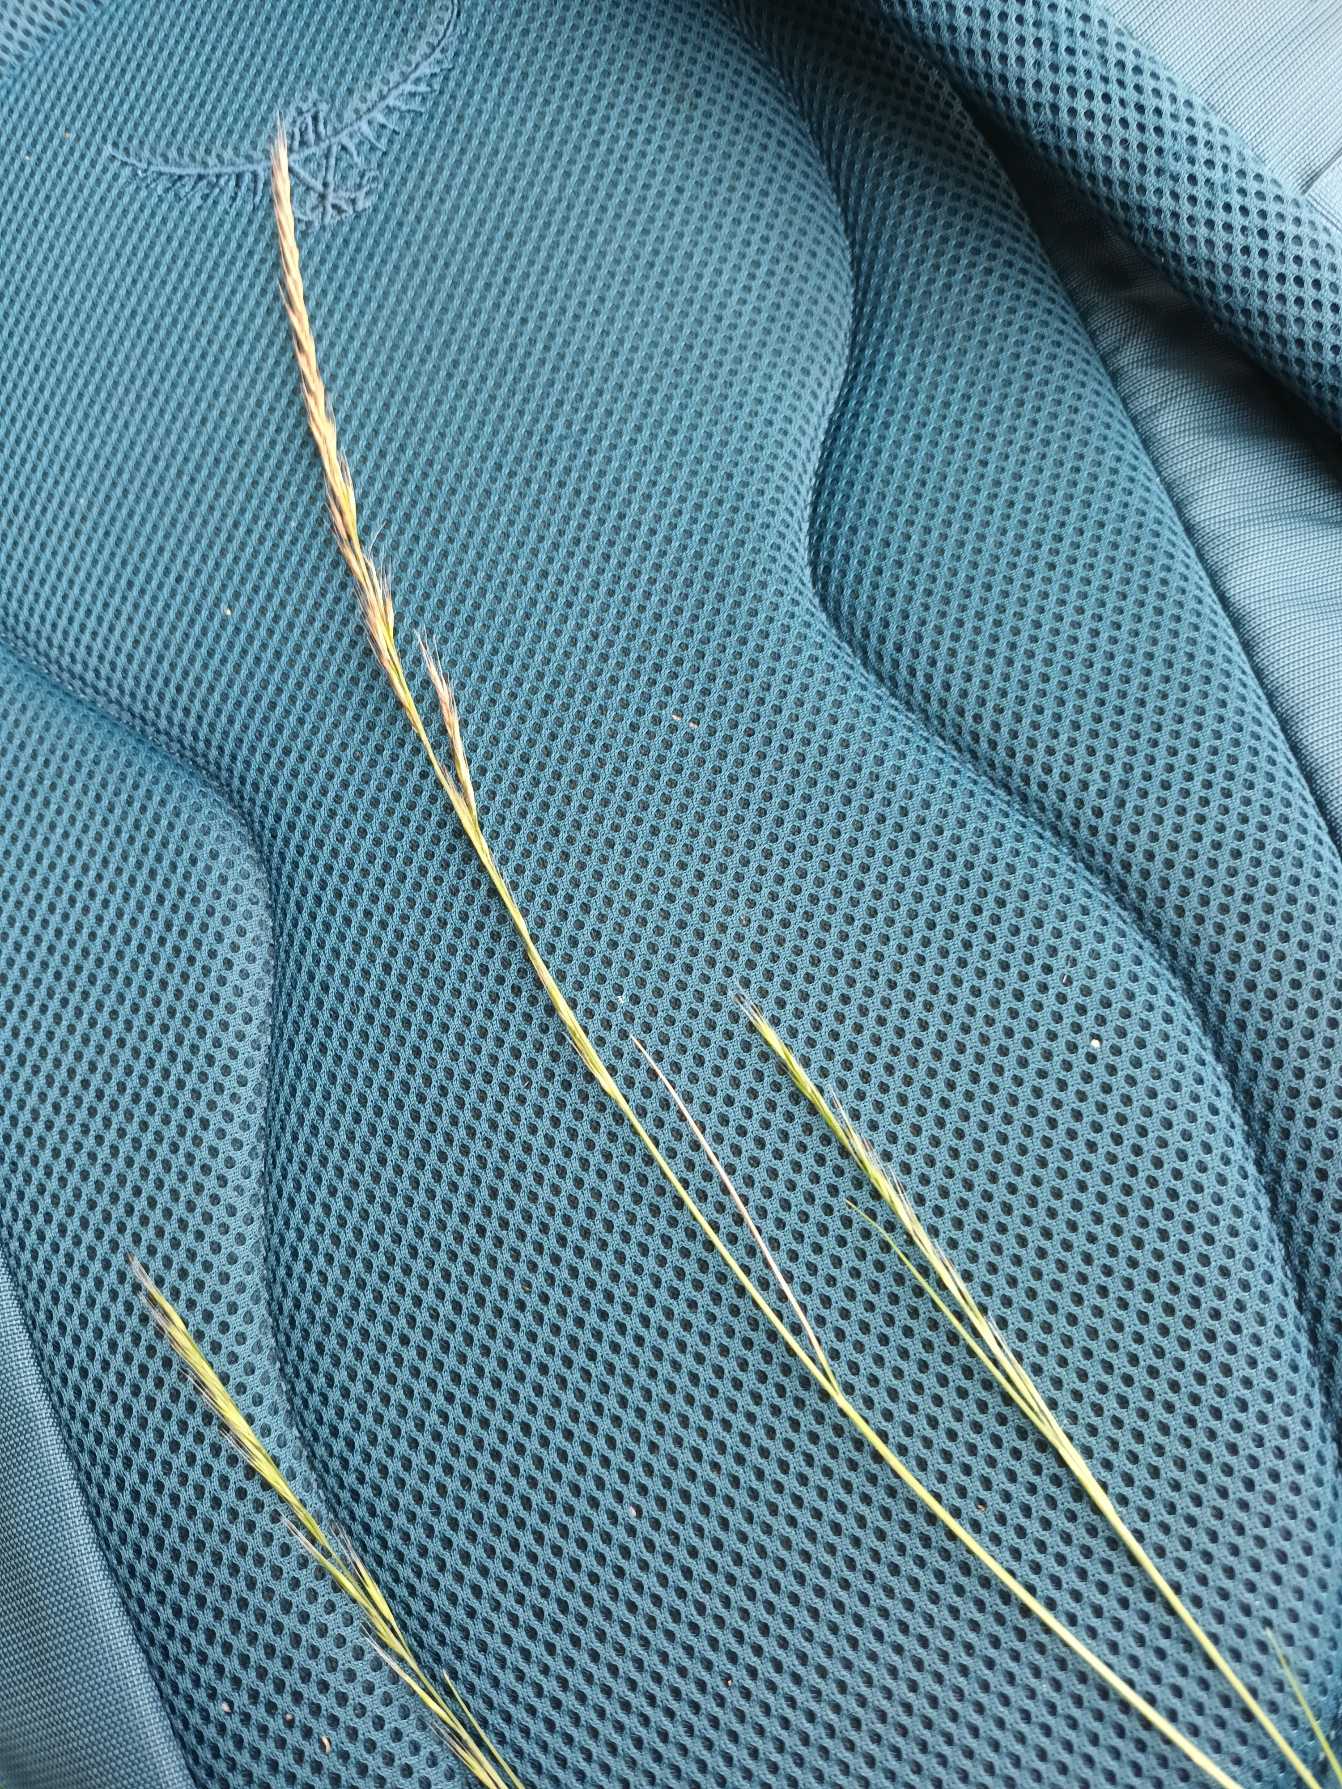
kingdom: Plantae
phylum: Tracheophyta
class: Liliopsida
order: Poales
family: Poaceae
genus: Festuca
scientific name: Festuca muralis
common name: Mur-væselhale
